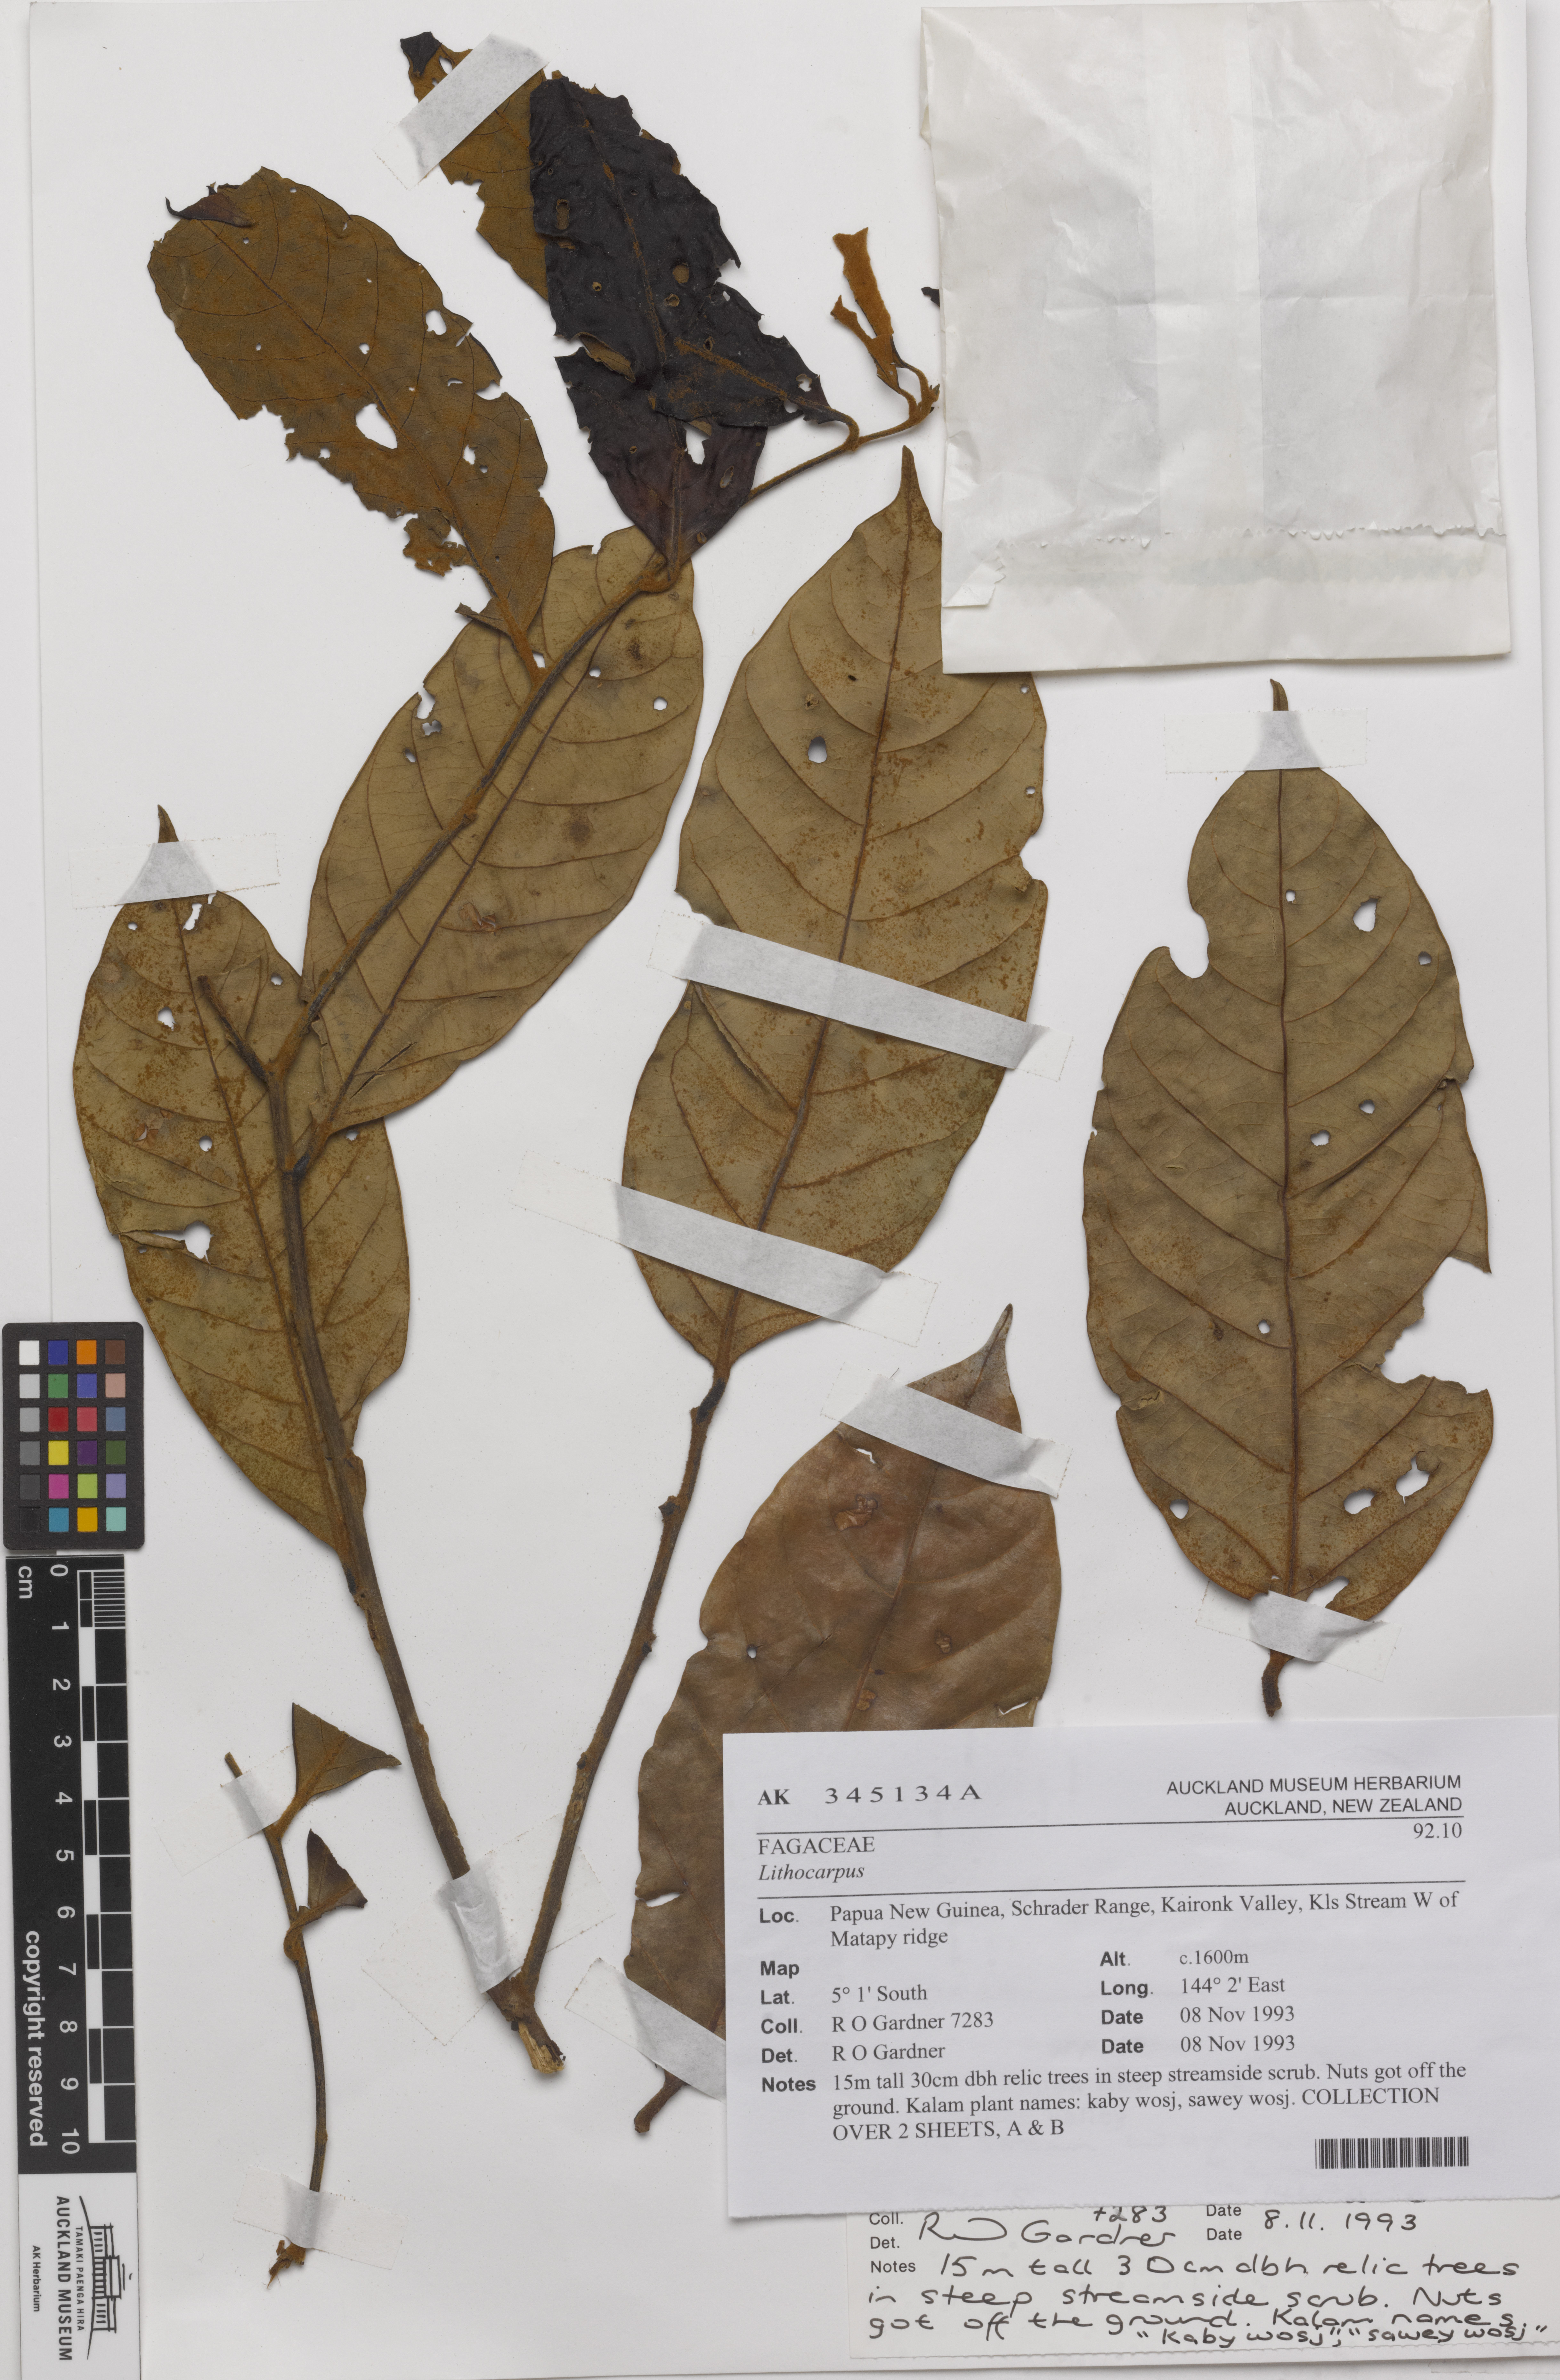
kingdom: Plantae
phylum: Tracheophyta
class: Magnoliopsida
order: Fagales
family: Fagaceae
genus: Lithocarpus
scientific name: Lithocarpus
